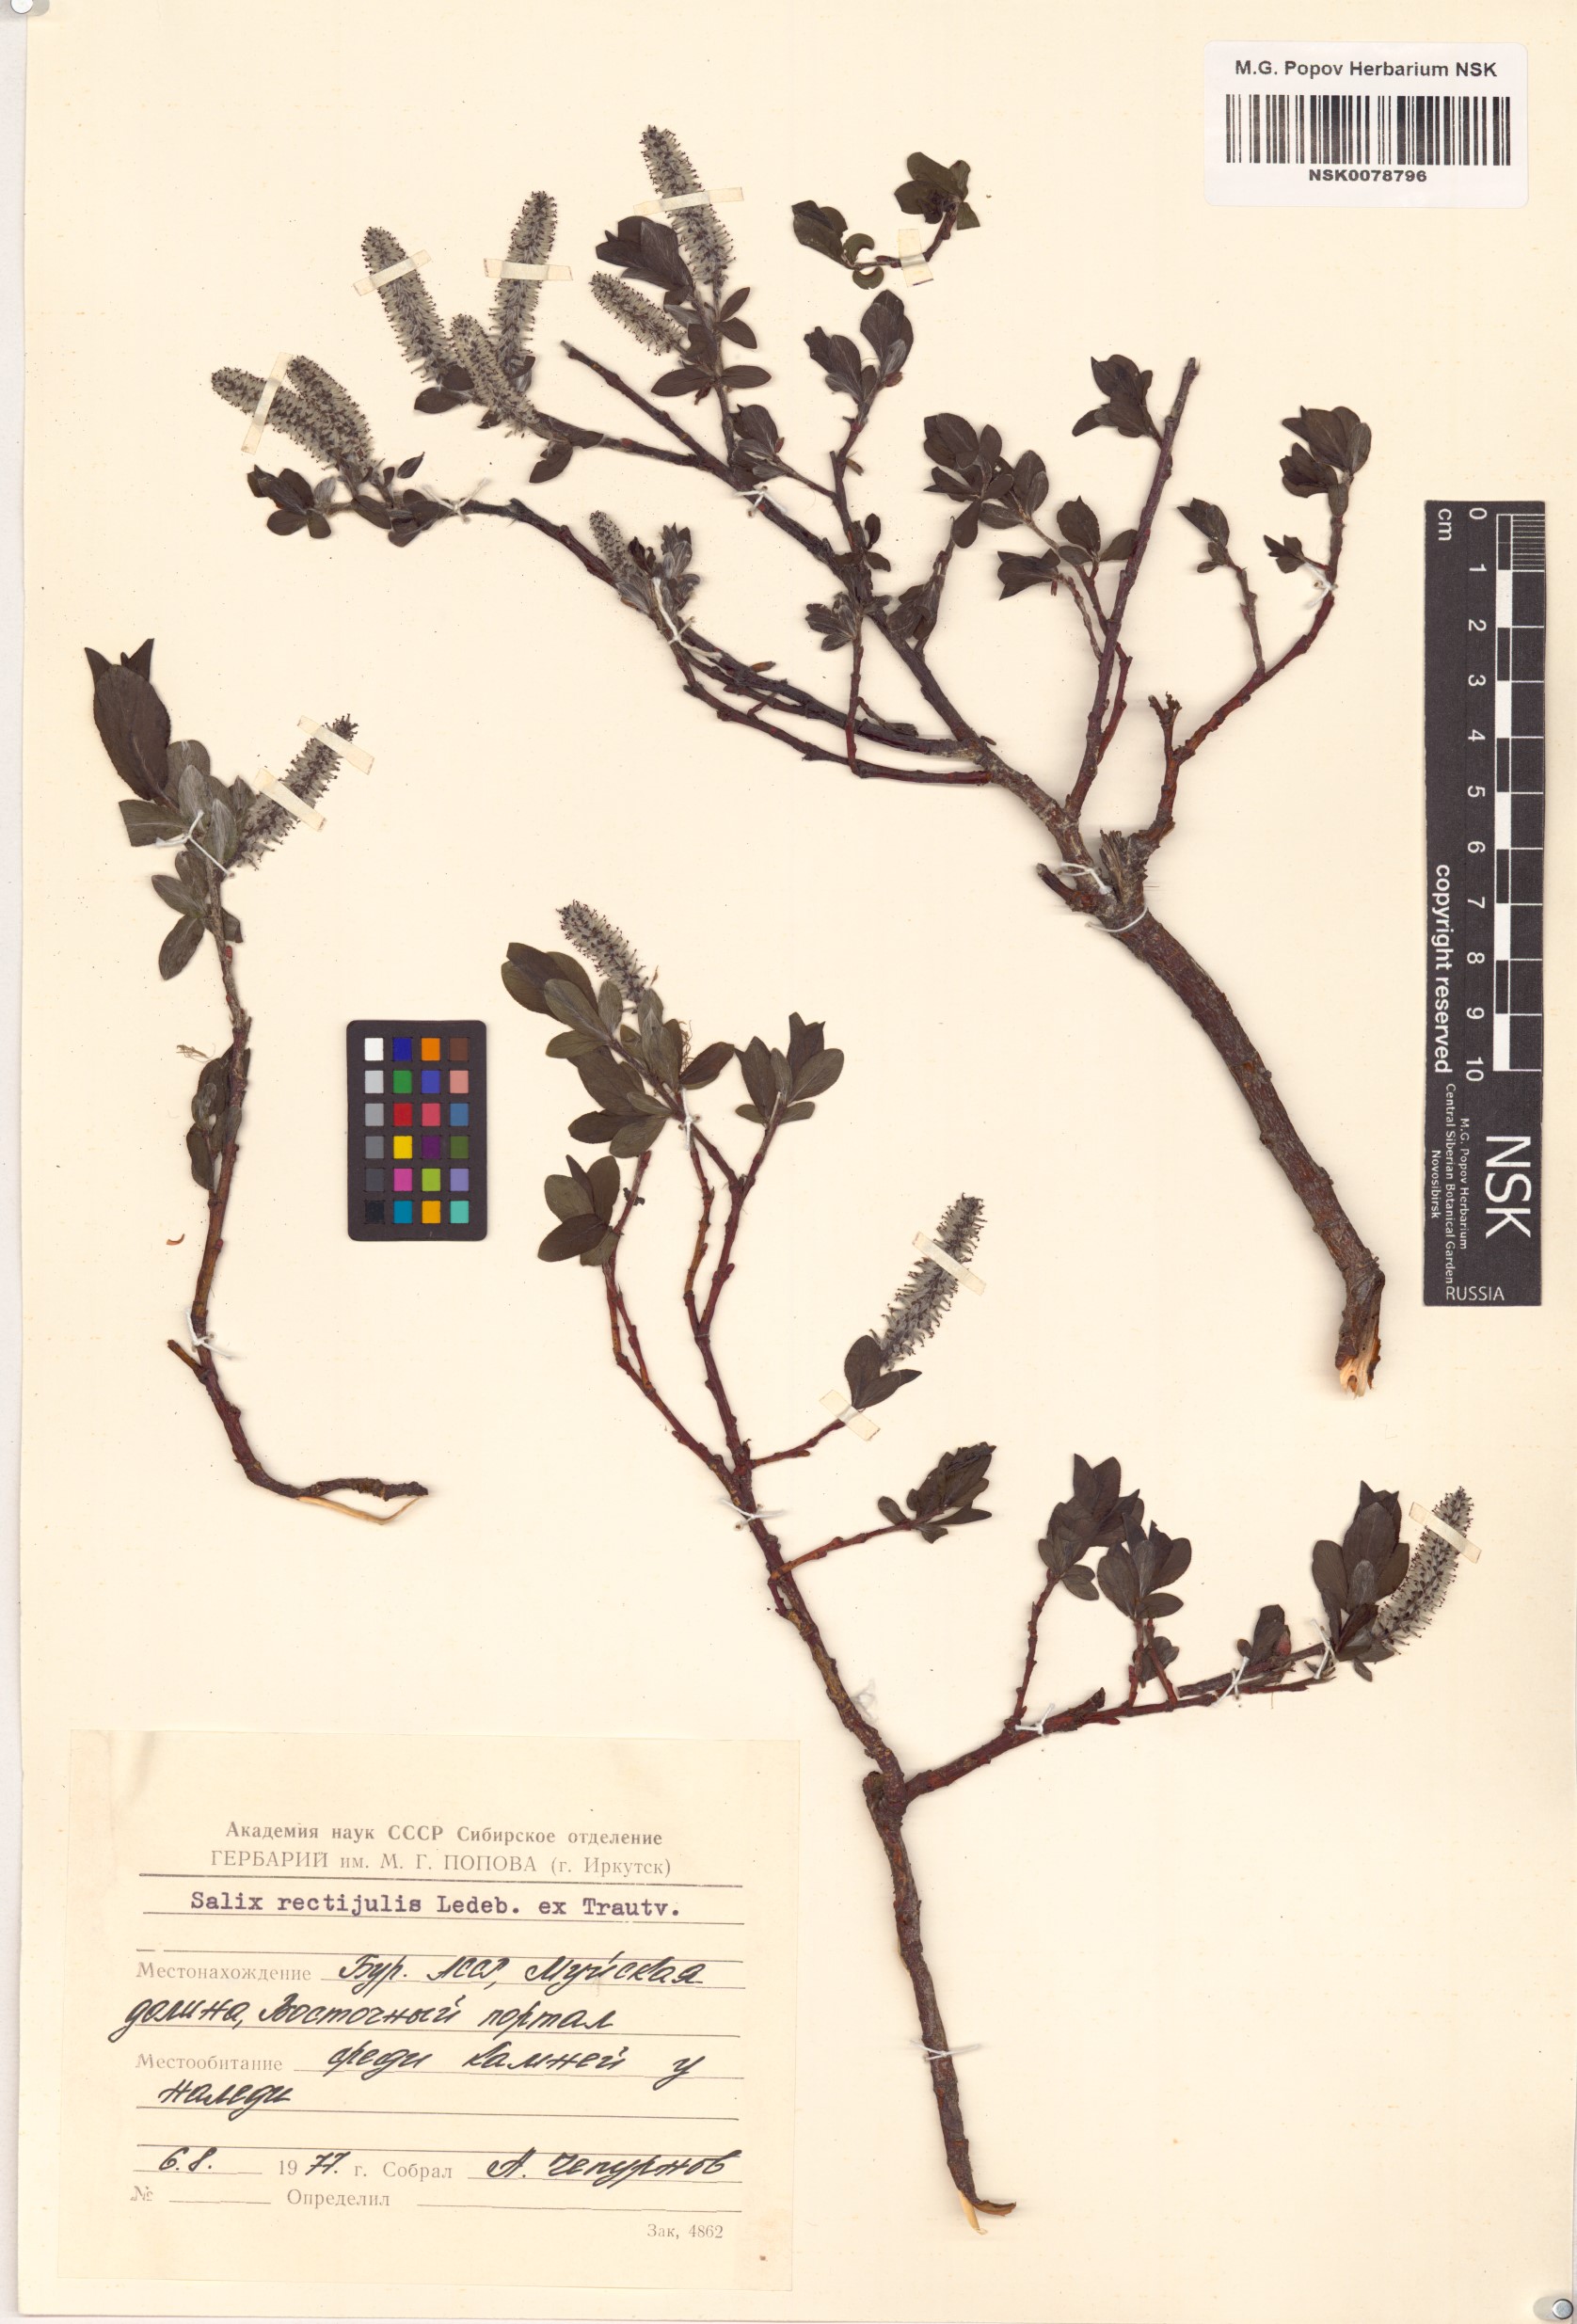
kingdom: Plantae
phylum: Tracheophyta
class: Magnoliopsida
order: Malpighiales
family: Salicaceae
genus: Salix
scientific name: Salix rectijulis
